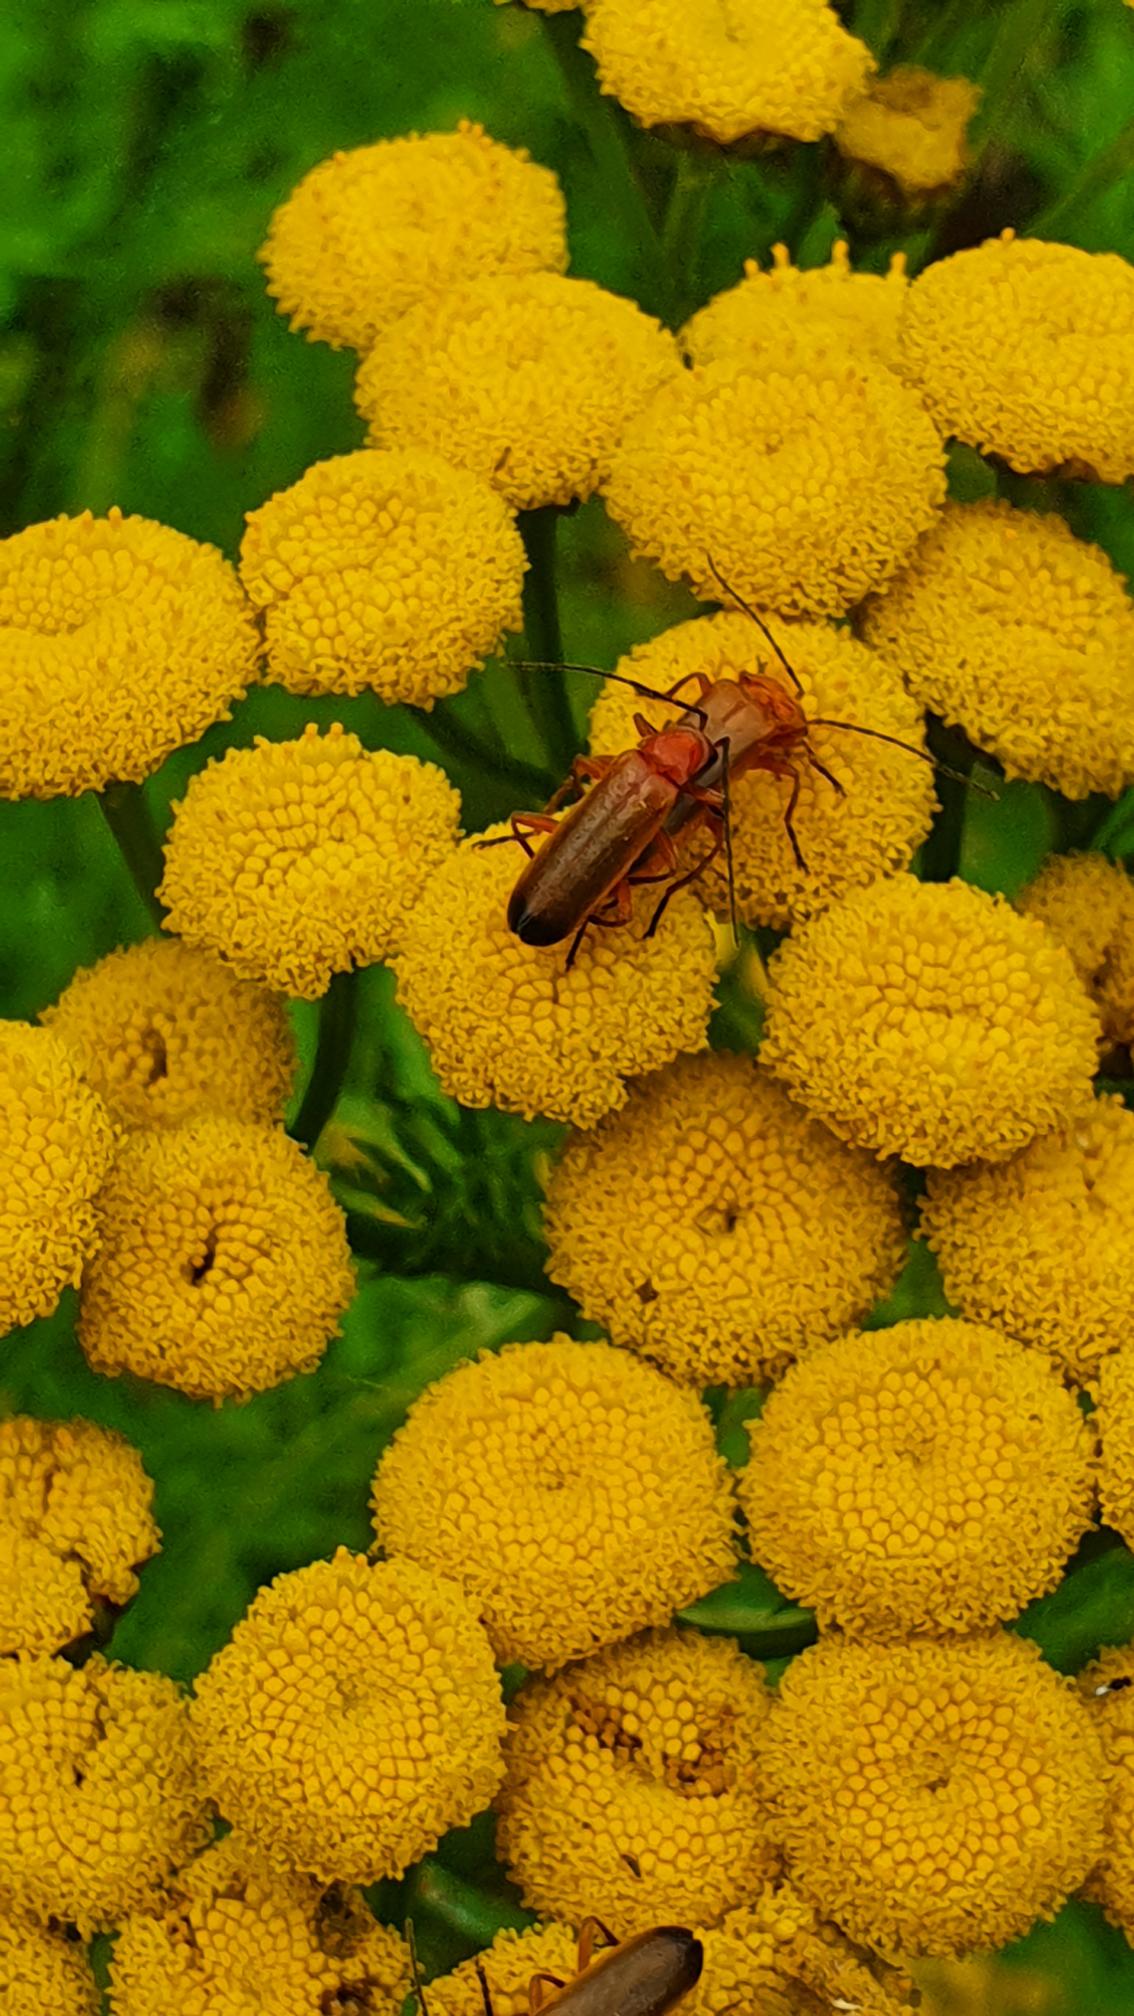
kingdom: Animalia
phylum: Arthropoda
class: Insecta
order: Coleoptera
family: Cantharidae
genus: Rhagonycha
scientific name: Rhagonycha fulva
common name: Præstebille
